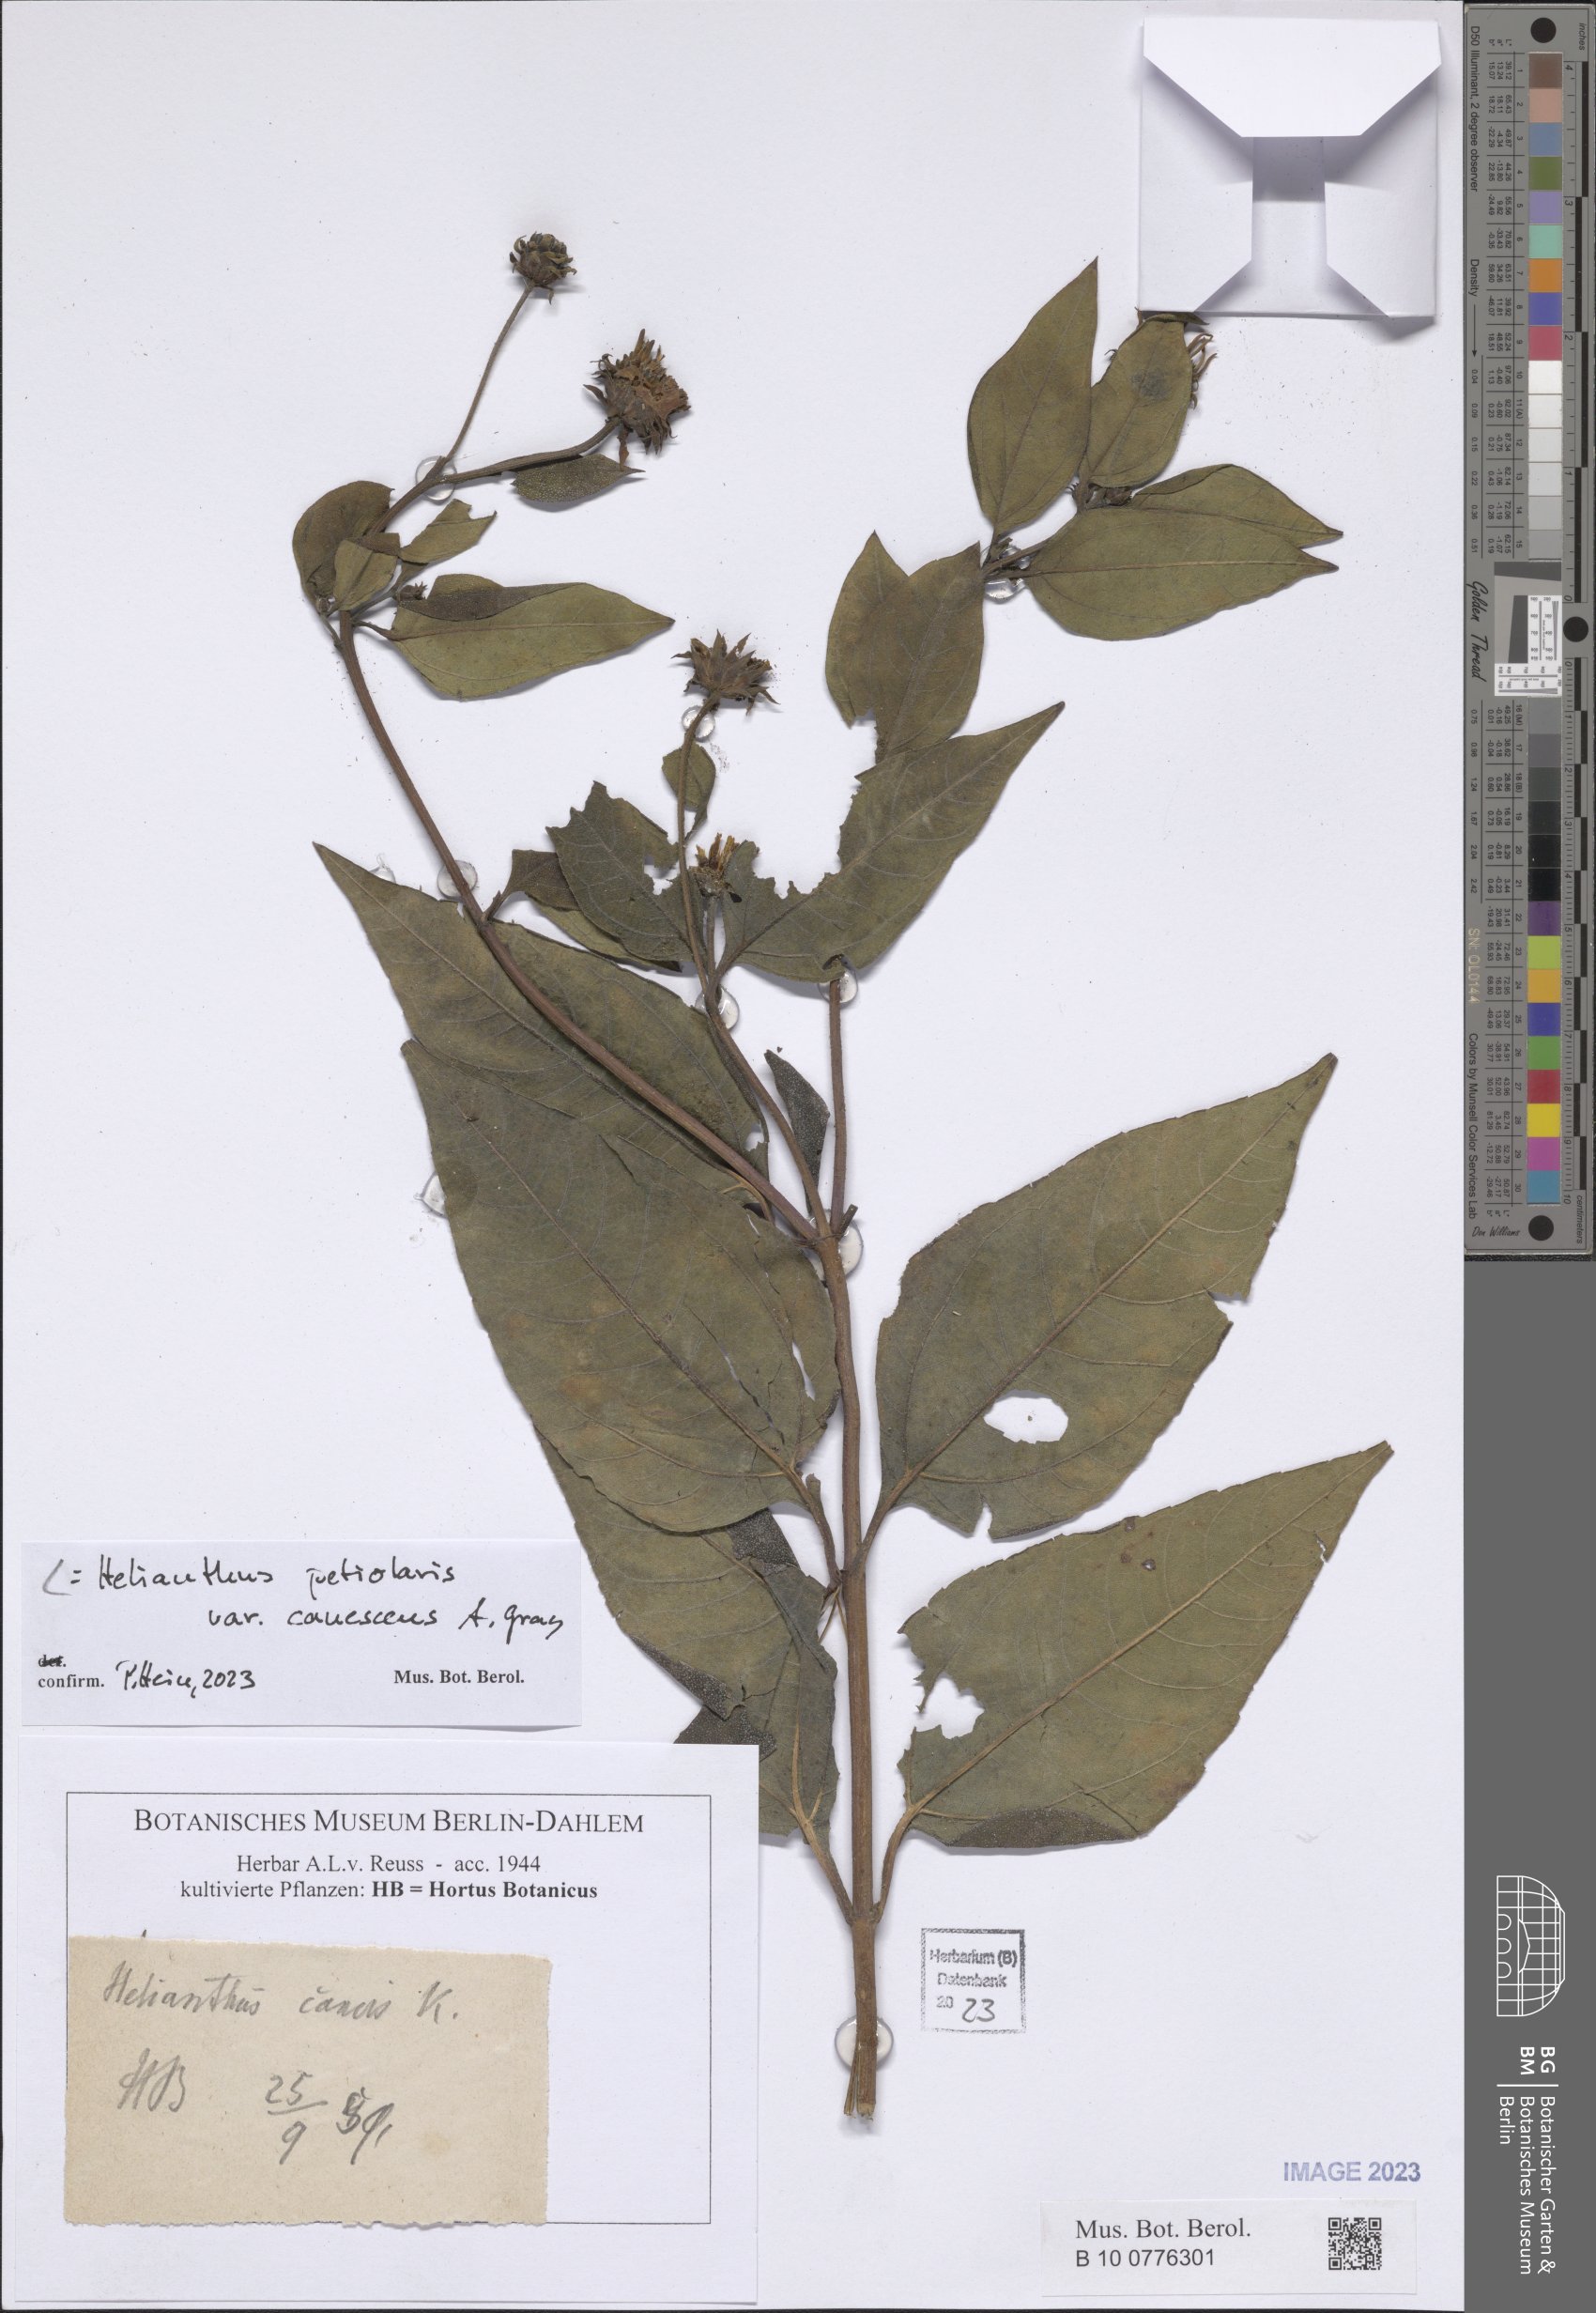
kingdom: Plantae
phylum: Tracheophyta
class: Magnoliopsida
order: Asterales
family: Asteraceae
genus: Helianthus
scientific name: Helianthus petiolaris
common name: Lesser sunflower
